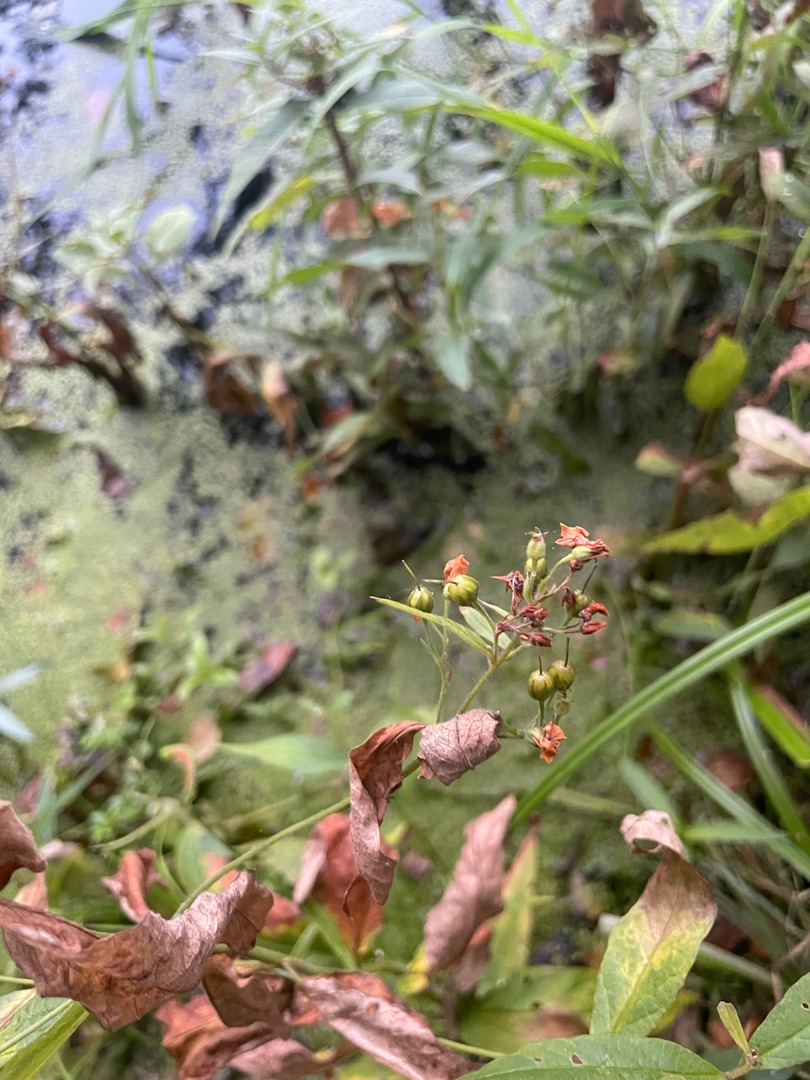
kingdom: Plantae
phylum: Tracheophyta
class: Magnoliopsida
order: Ericales
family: Primulaceae
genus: Lysimachia
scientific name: Lysimachia vulgaris
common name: Almindelig fredløs
